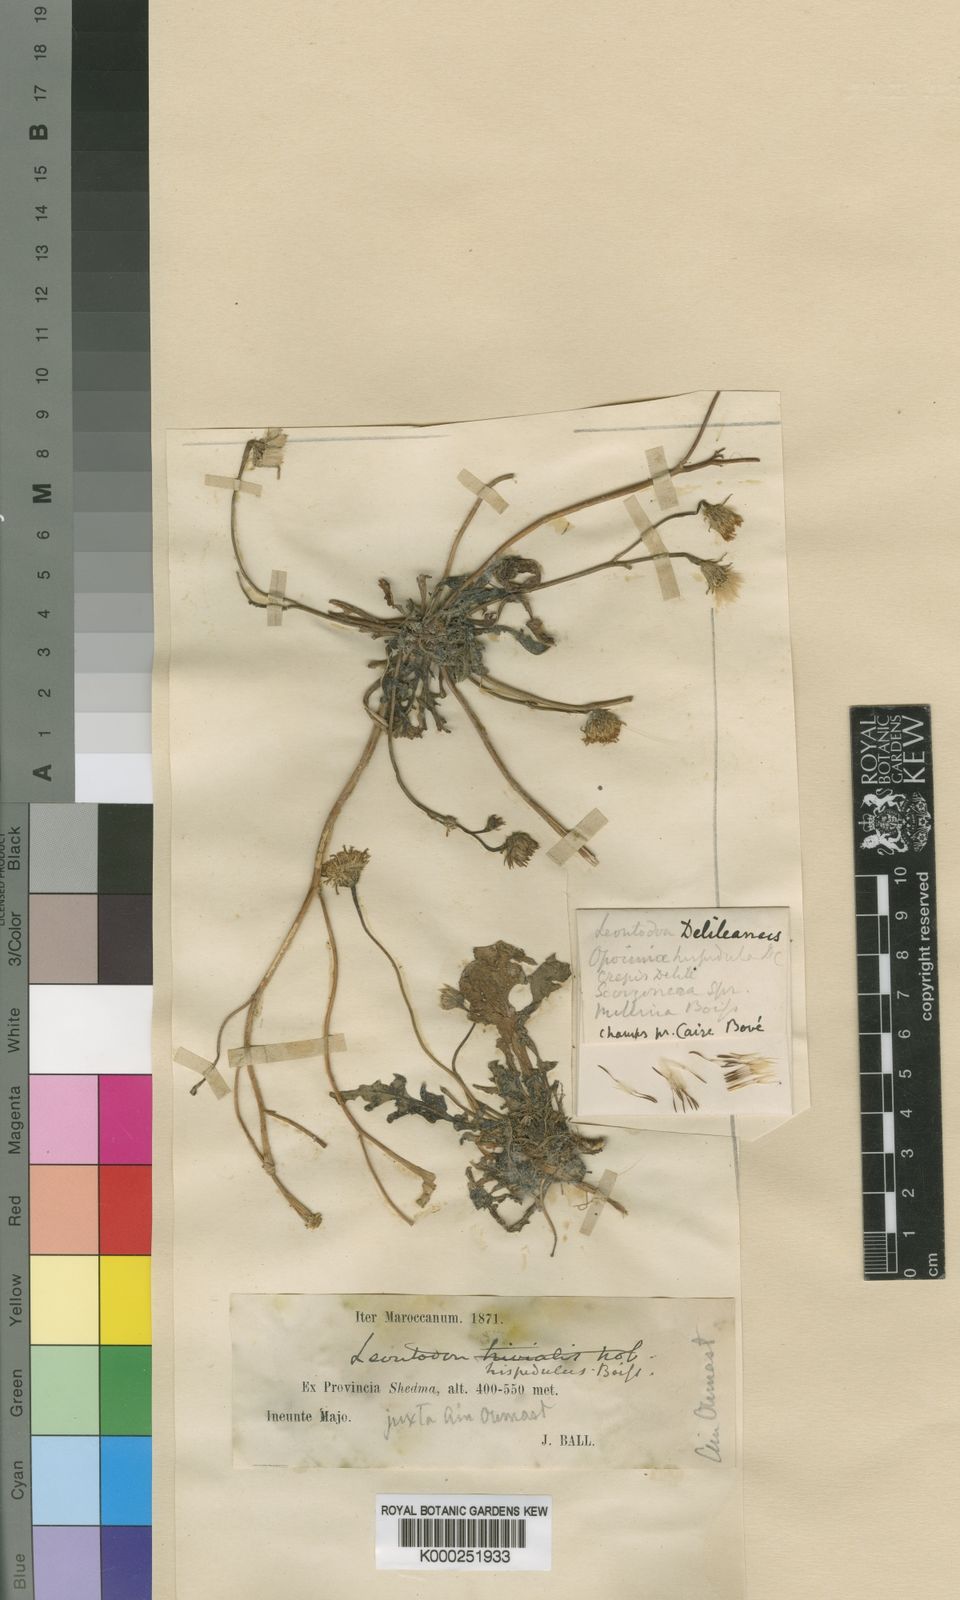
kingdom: Plantae
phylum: Tracheophyta
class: Magnoliopsida
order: Asterales
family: Asteraceae
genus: Leontodon
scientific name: Leontodon
